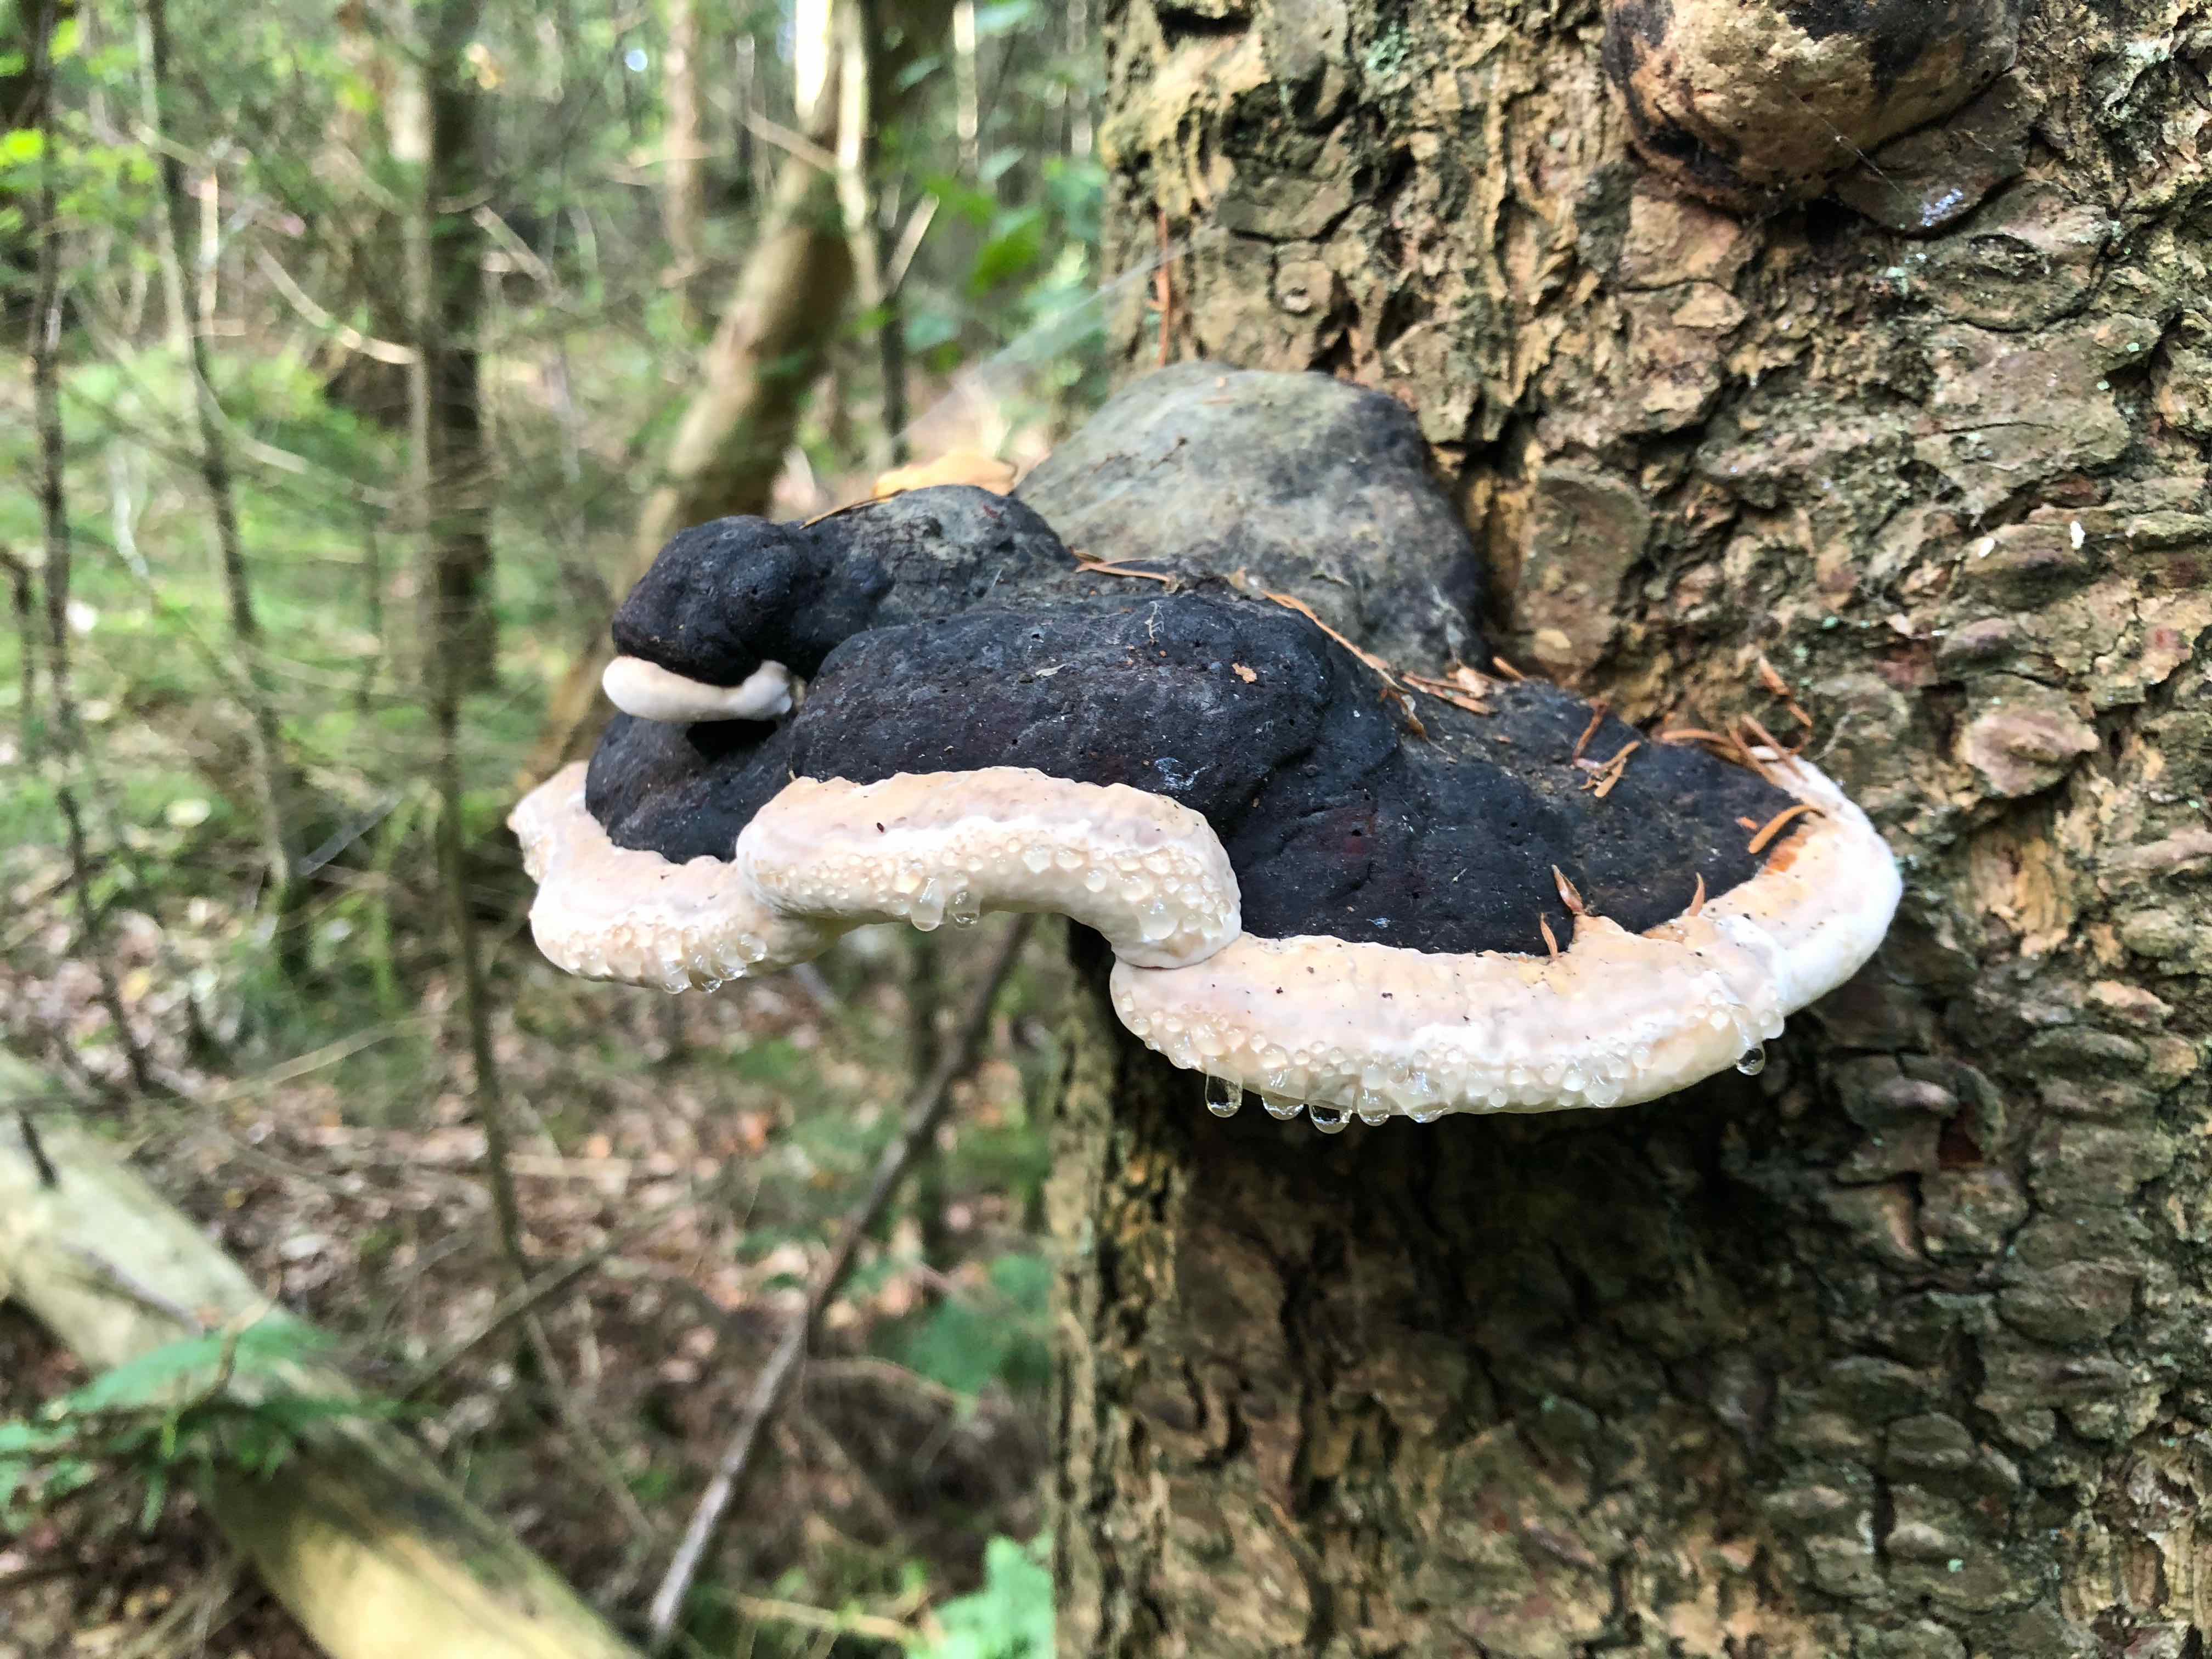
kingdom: Fungi
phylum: Basidiomycota
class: Agaricomycetes
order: Polyporales
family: Fomitopsidaceae
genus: Fomitopsis
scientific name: Fomitopsis pinicola
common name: randbæltet hovporesvamp
